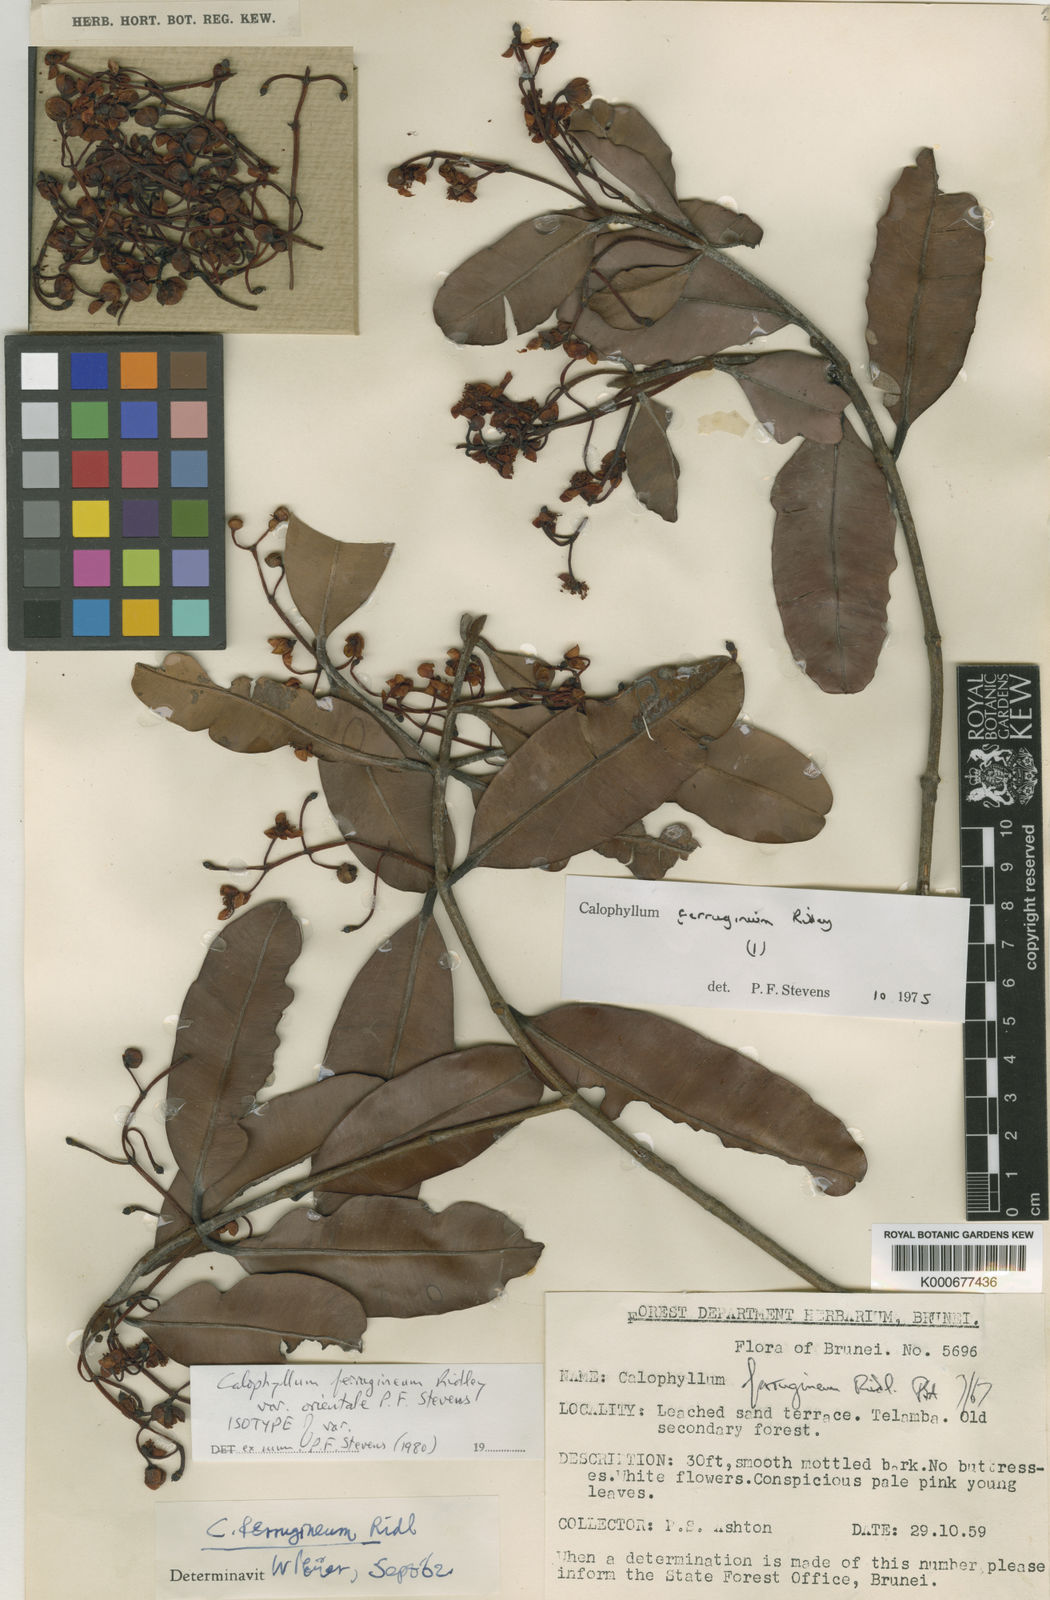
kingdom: Plantae
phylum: Tracheophyta
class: Magnoliopsida
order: Malpighiales
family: Calophyllaceae
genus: Calophyllum
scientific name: Calophyllum ferrugineum
